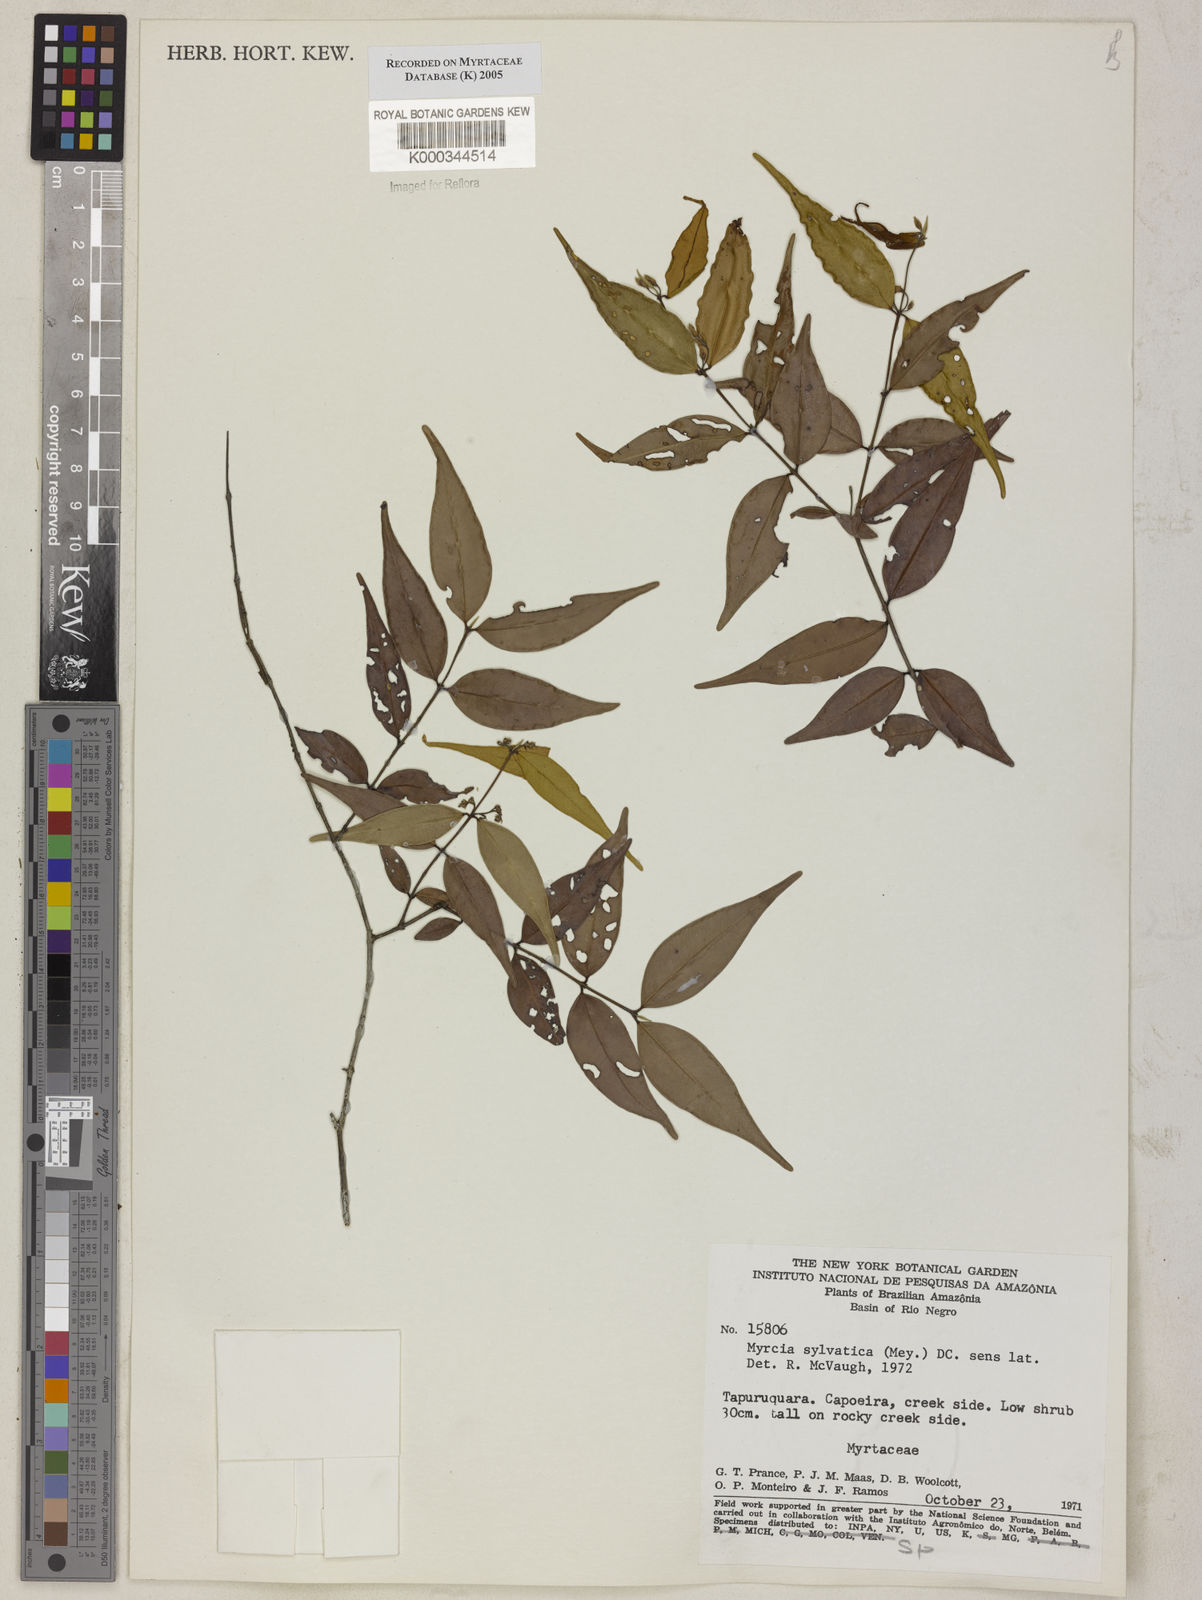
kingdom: Plantae
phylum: Tracheophyta
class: Magnoliopsida
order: Myrtales
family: Myrtaceae
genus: Myrcia
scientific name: Myrcia sylvatica
